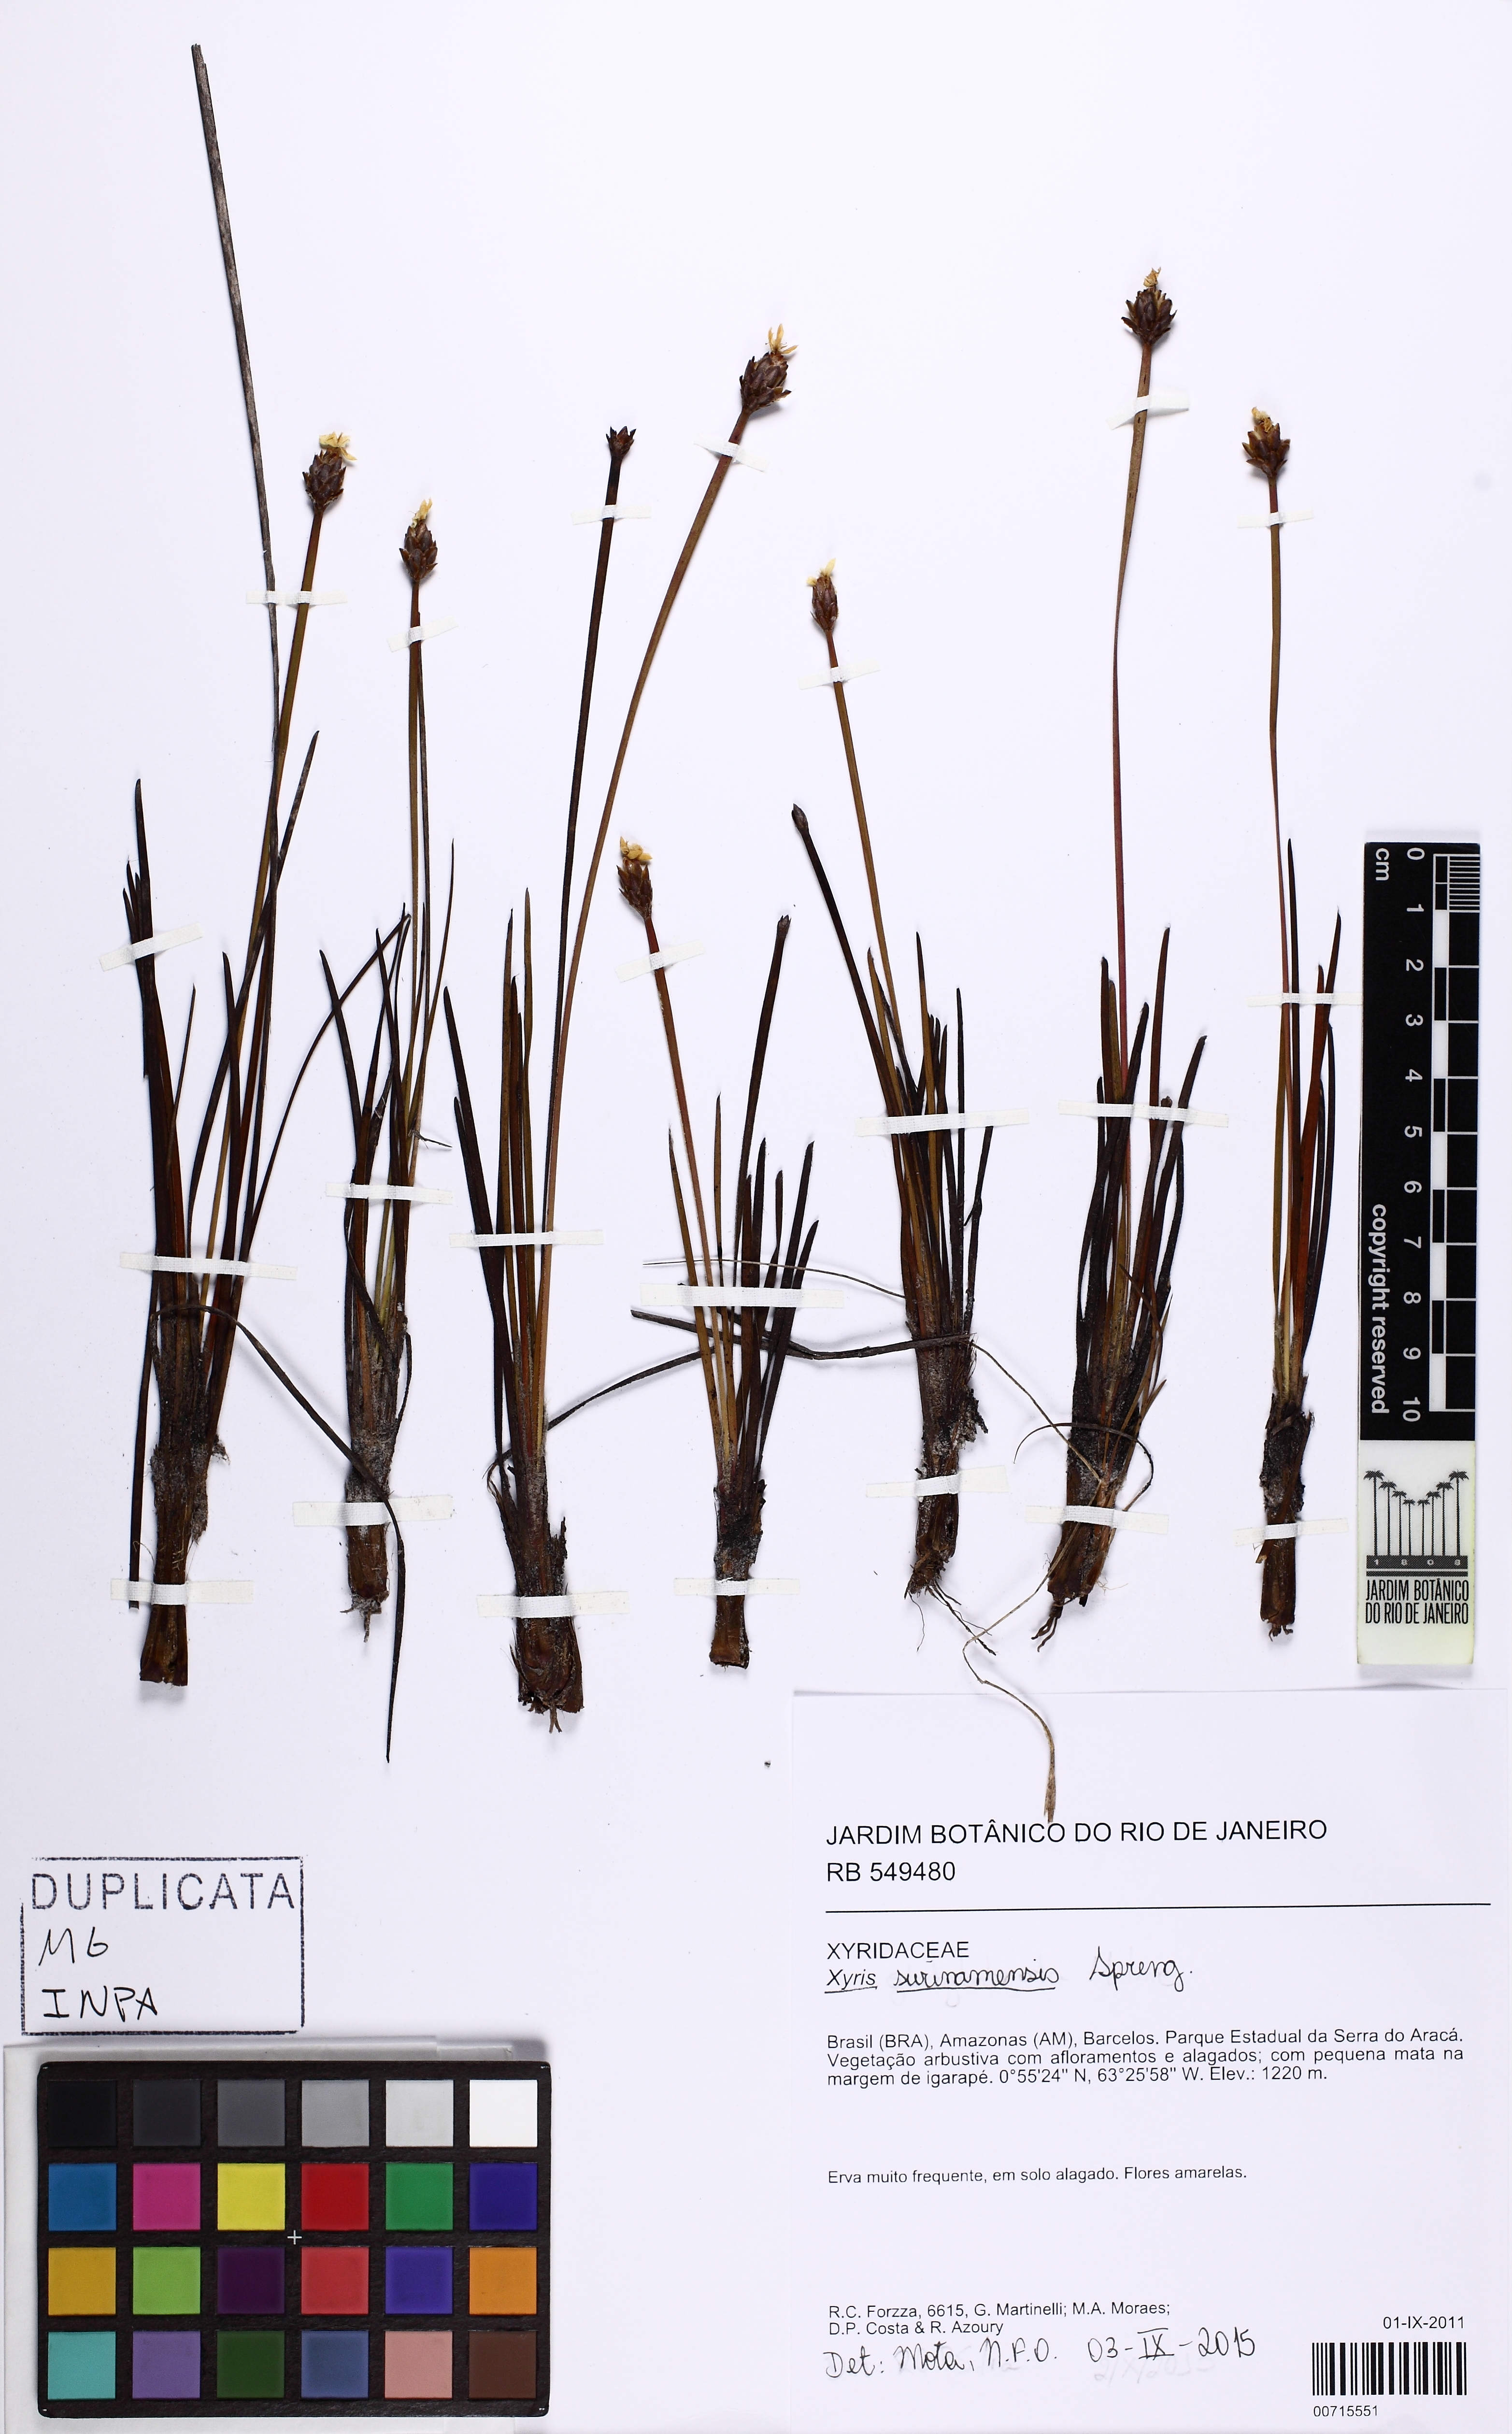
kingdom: Plantae
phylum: Tracheophyta
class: Liliopsida
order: Poales
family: Xyridaceae
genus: Xyris
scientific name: Xyris surinamensis
